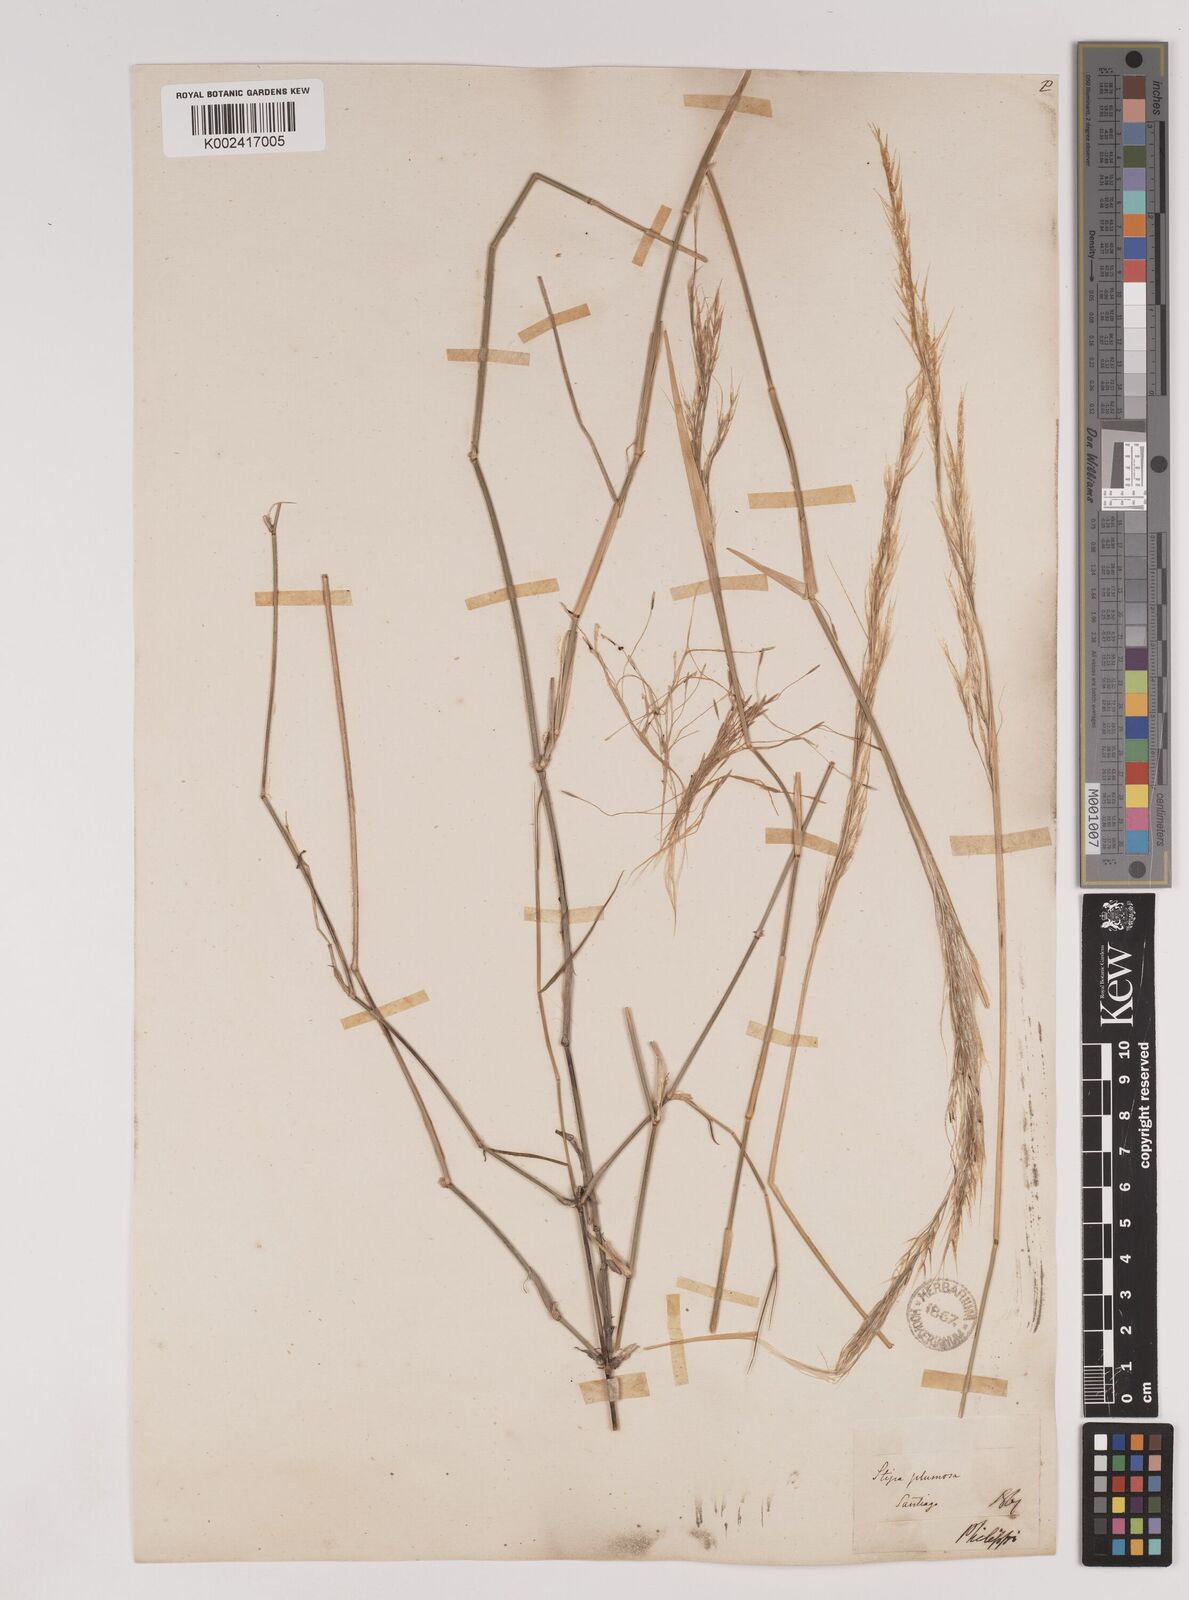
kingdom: Plantae
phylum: Tracheophyta
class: Liliopsida
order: Poales
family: Poaceae
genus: Stipa
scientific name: Stipa plumosa
